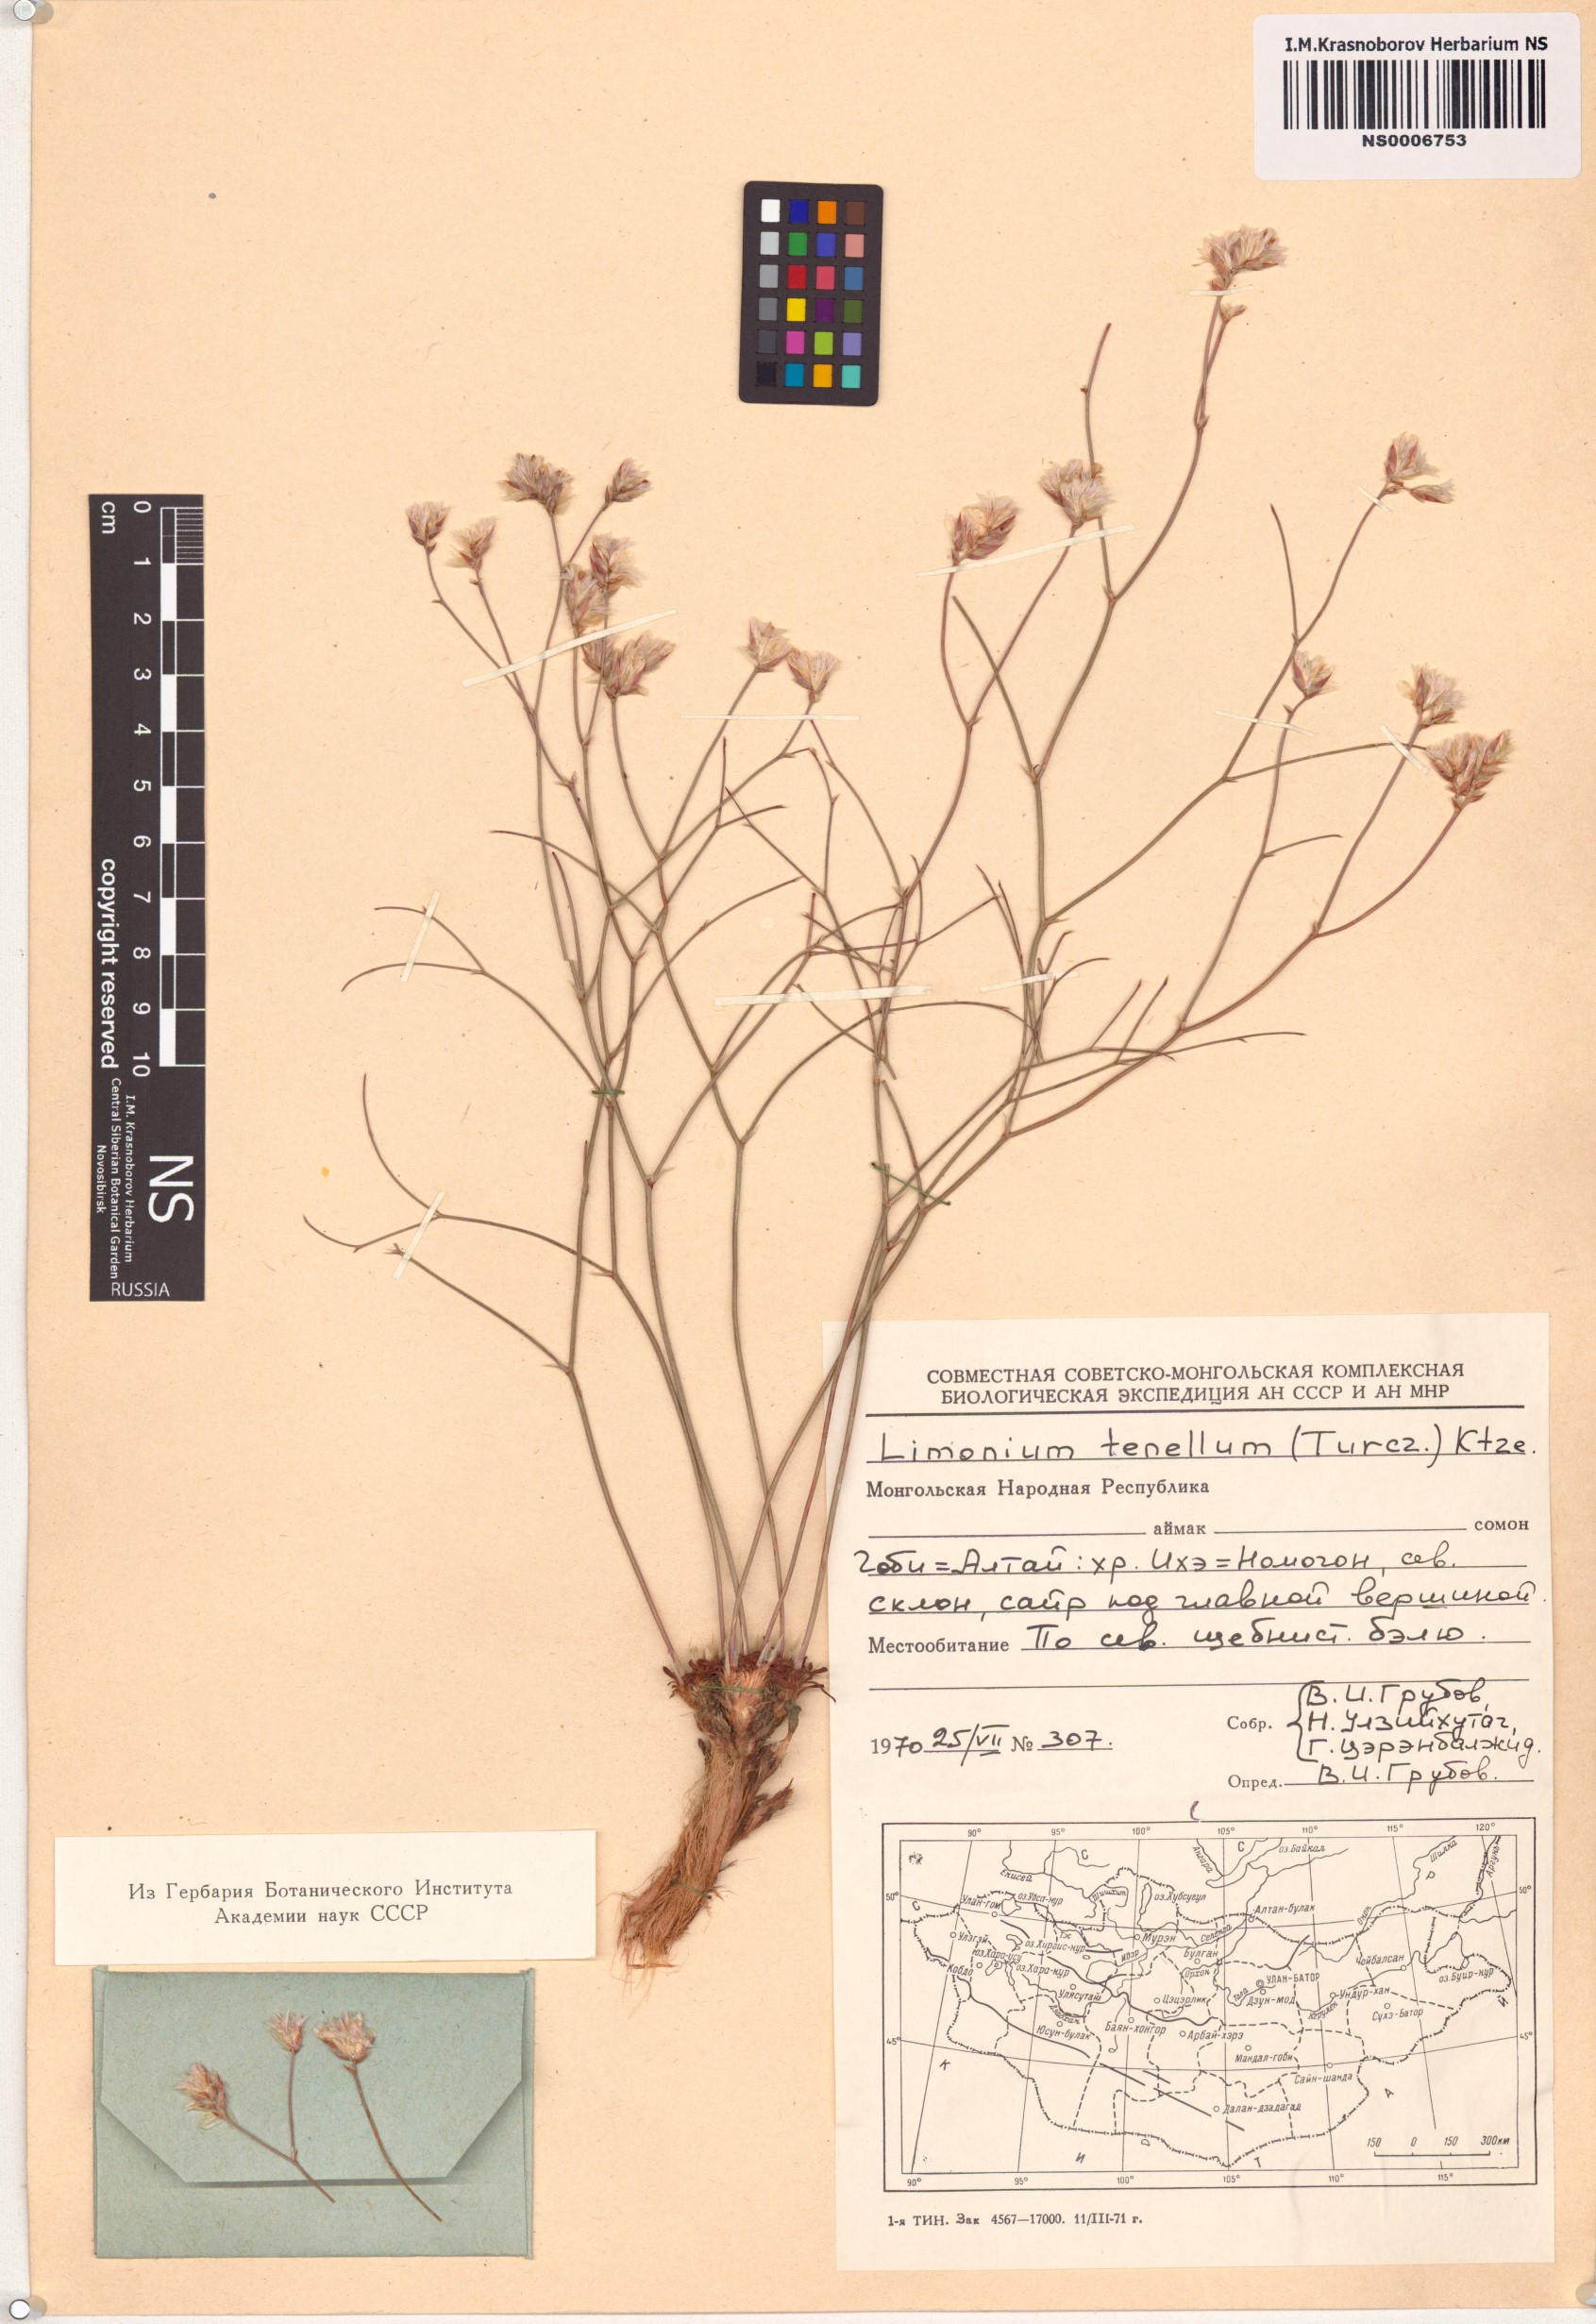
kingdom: Plantae
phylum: Tracheophyta
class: Magnoliopsida
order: Caryophyllales
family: Plumbaginaceae
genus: Limonium
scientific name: Limonium tenellum
